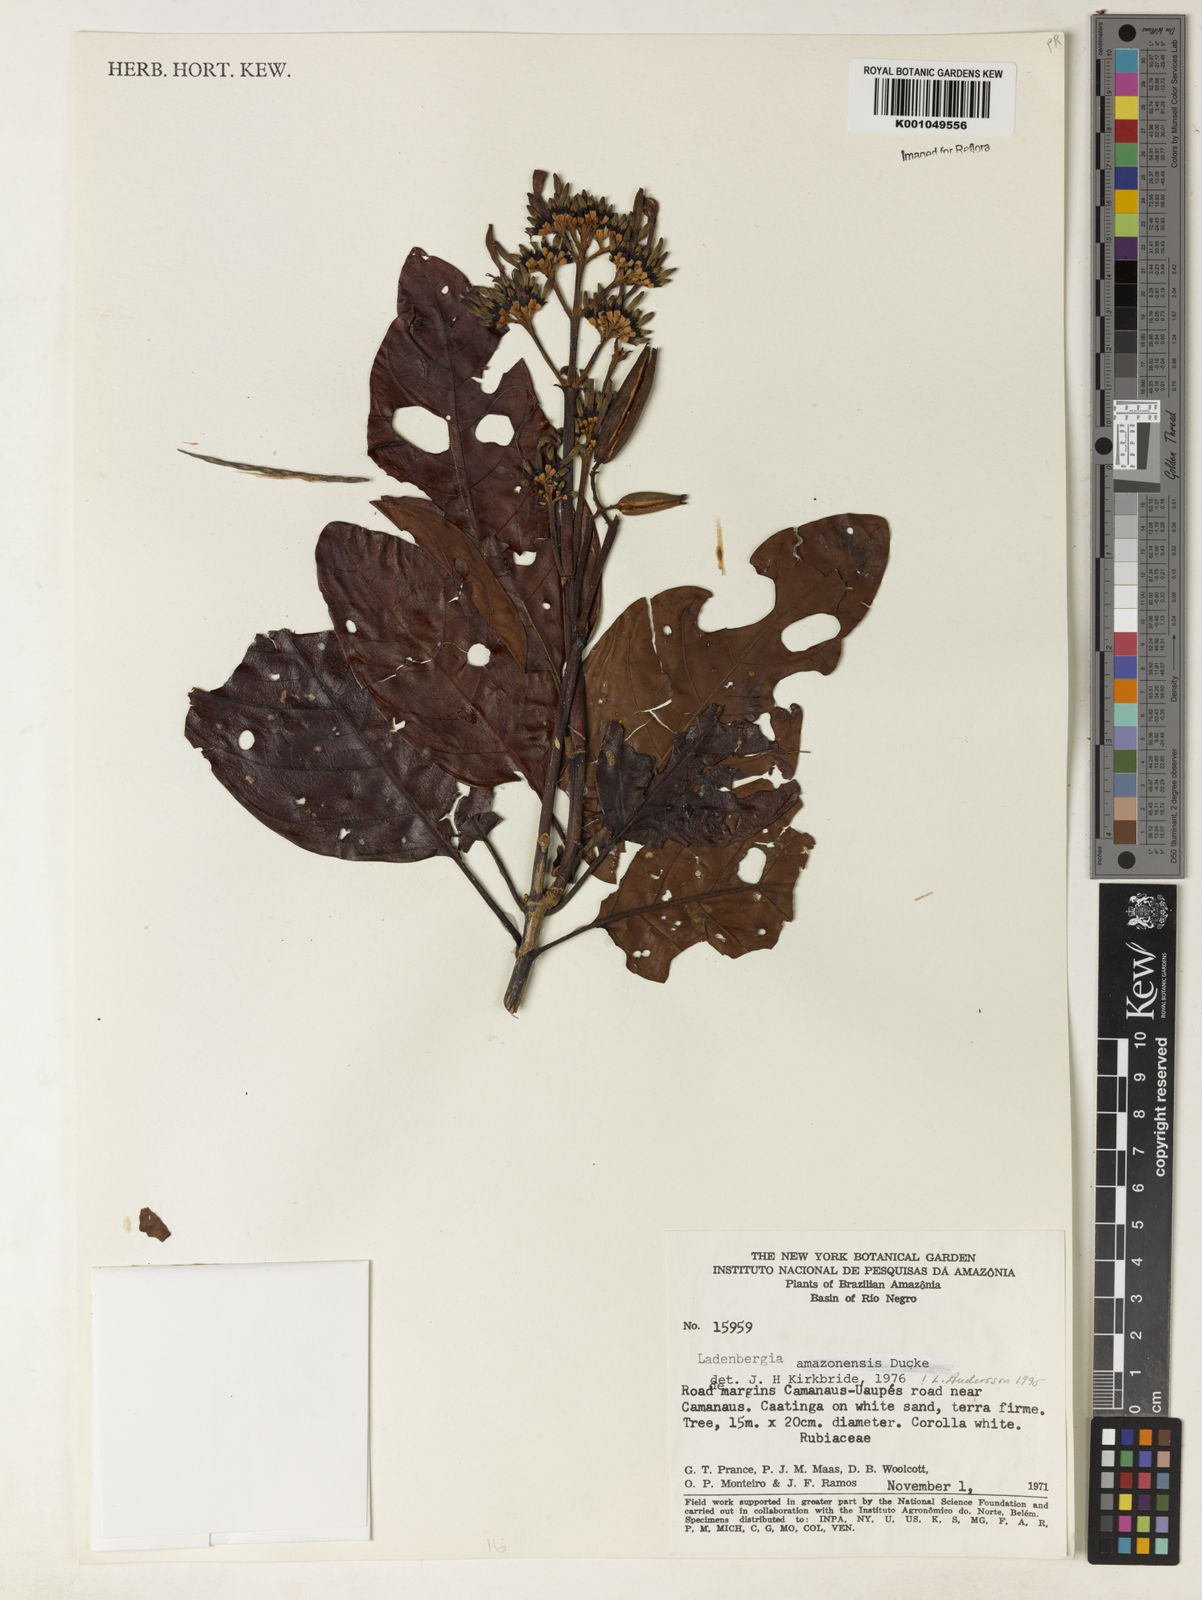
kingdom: Plantae
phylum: Tracheophyta
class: Magnoliopsida
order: Gentianales
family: Rubiaceae
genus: Ladenbergia
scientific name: Ladenbergia amazonensis
